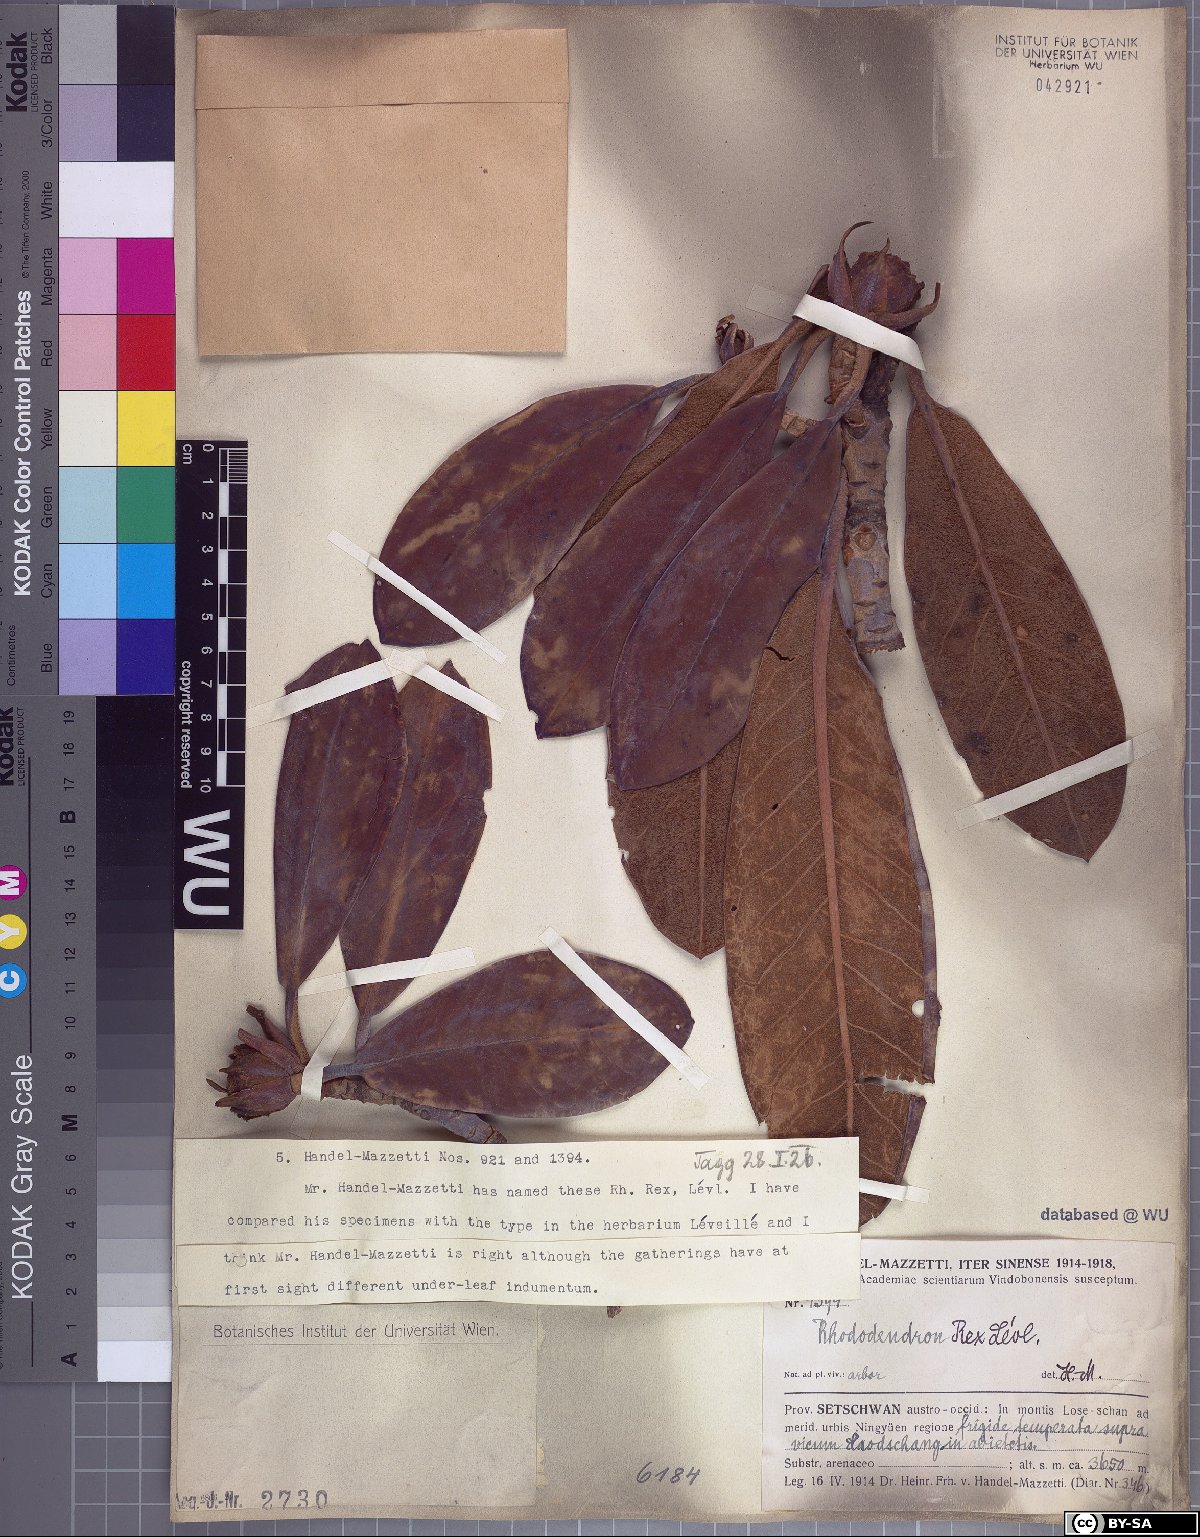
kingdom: Plantae
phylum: Tracheophyta
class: Magnoliopsida
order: Ericales
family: Ericaceae
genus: Rhododendron
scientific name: Rhododendron rex
